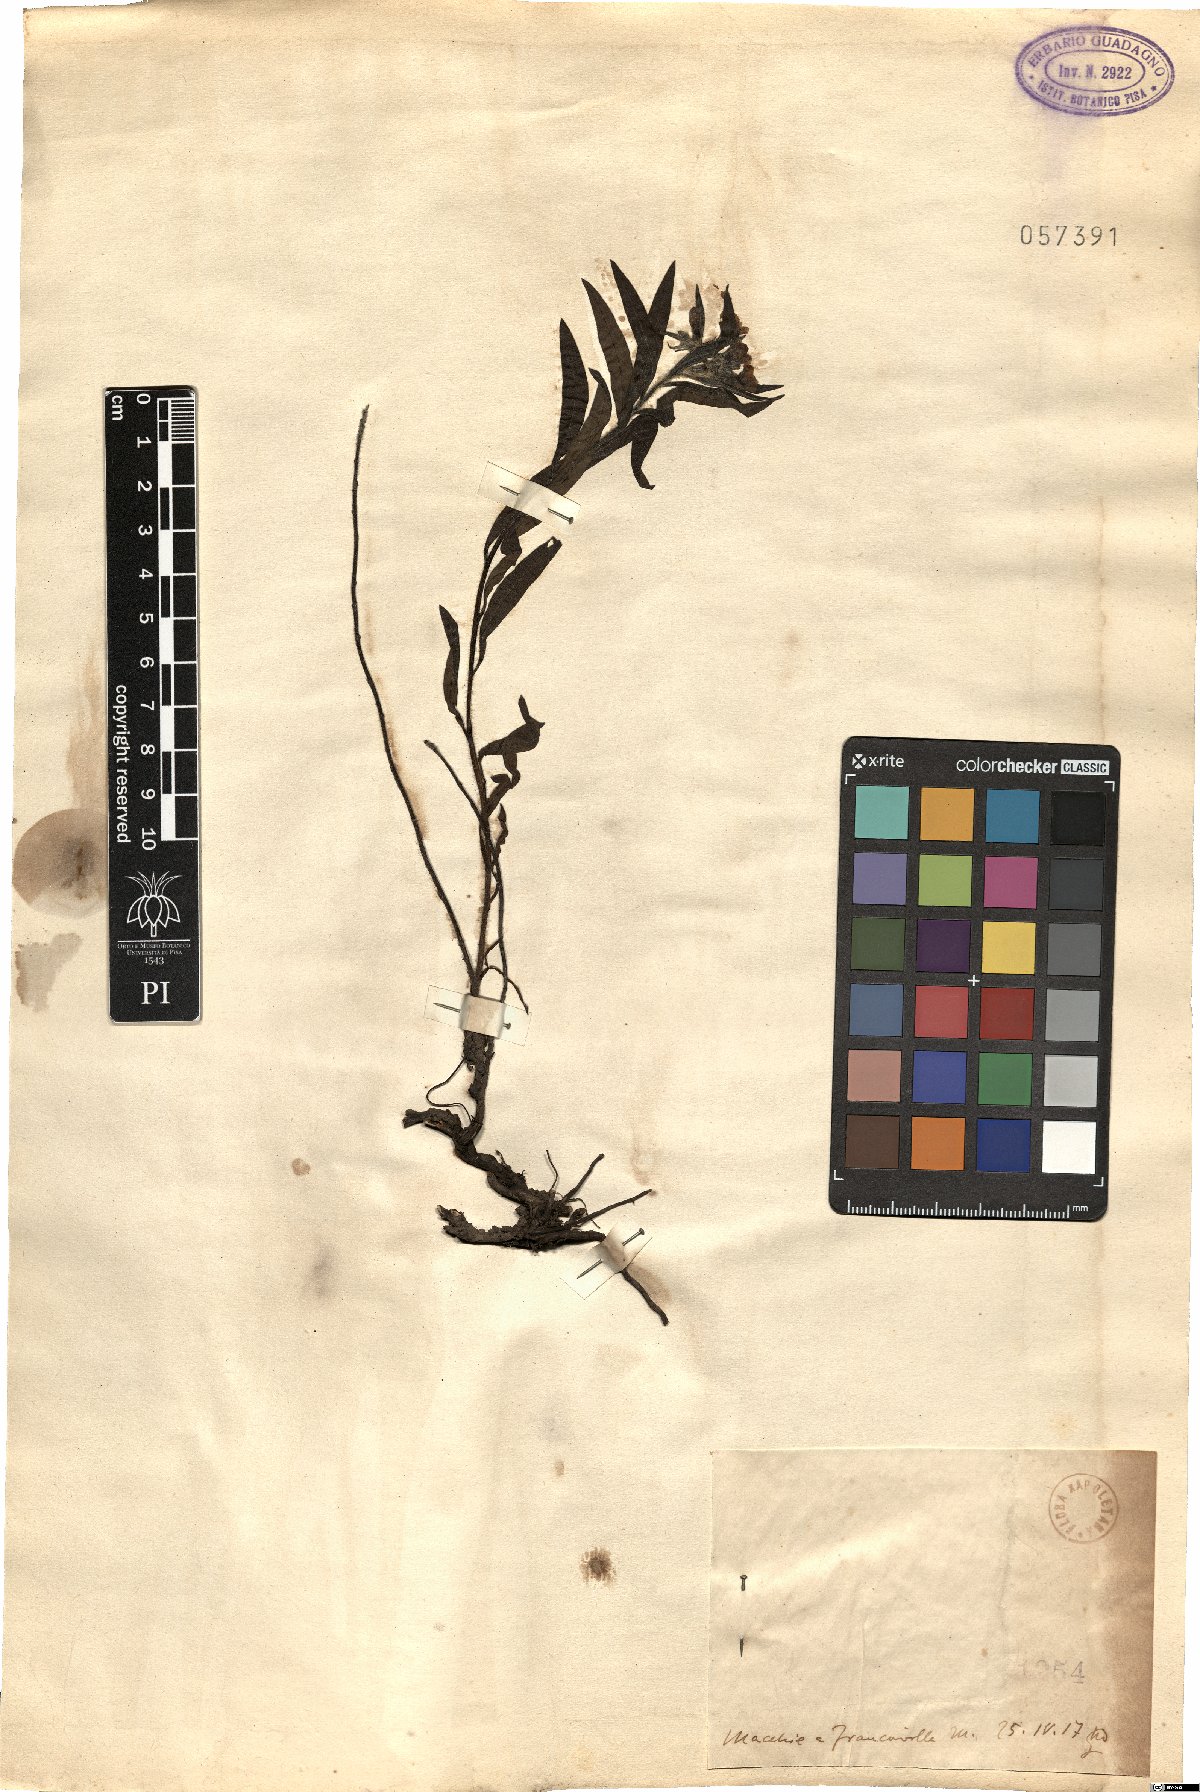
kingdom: Plantae
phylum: Tracheophyta
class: Magnoliopsida
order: Boraginales
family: Boraginaceae
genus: Lithospermum
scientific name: Lithospermum
